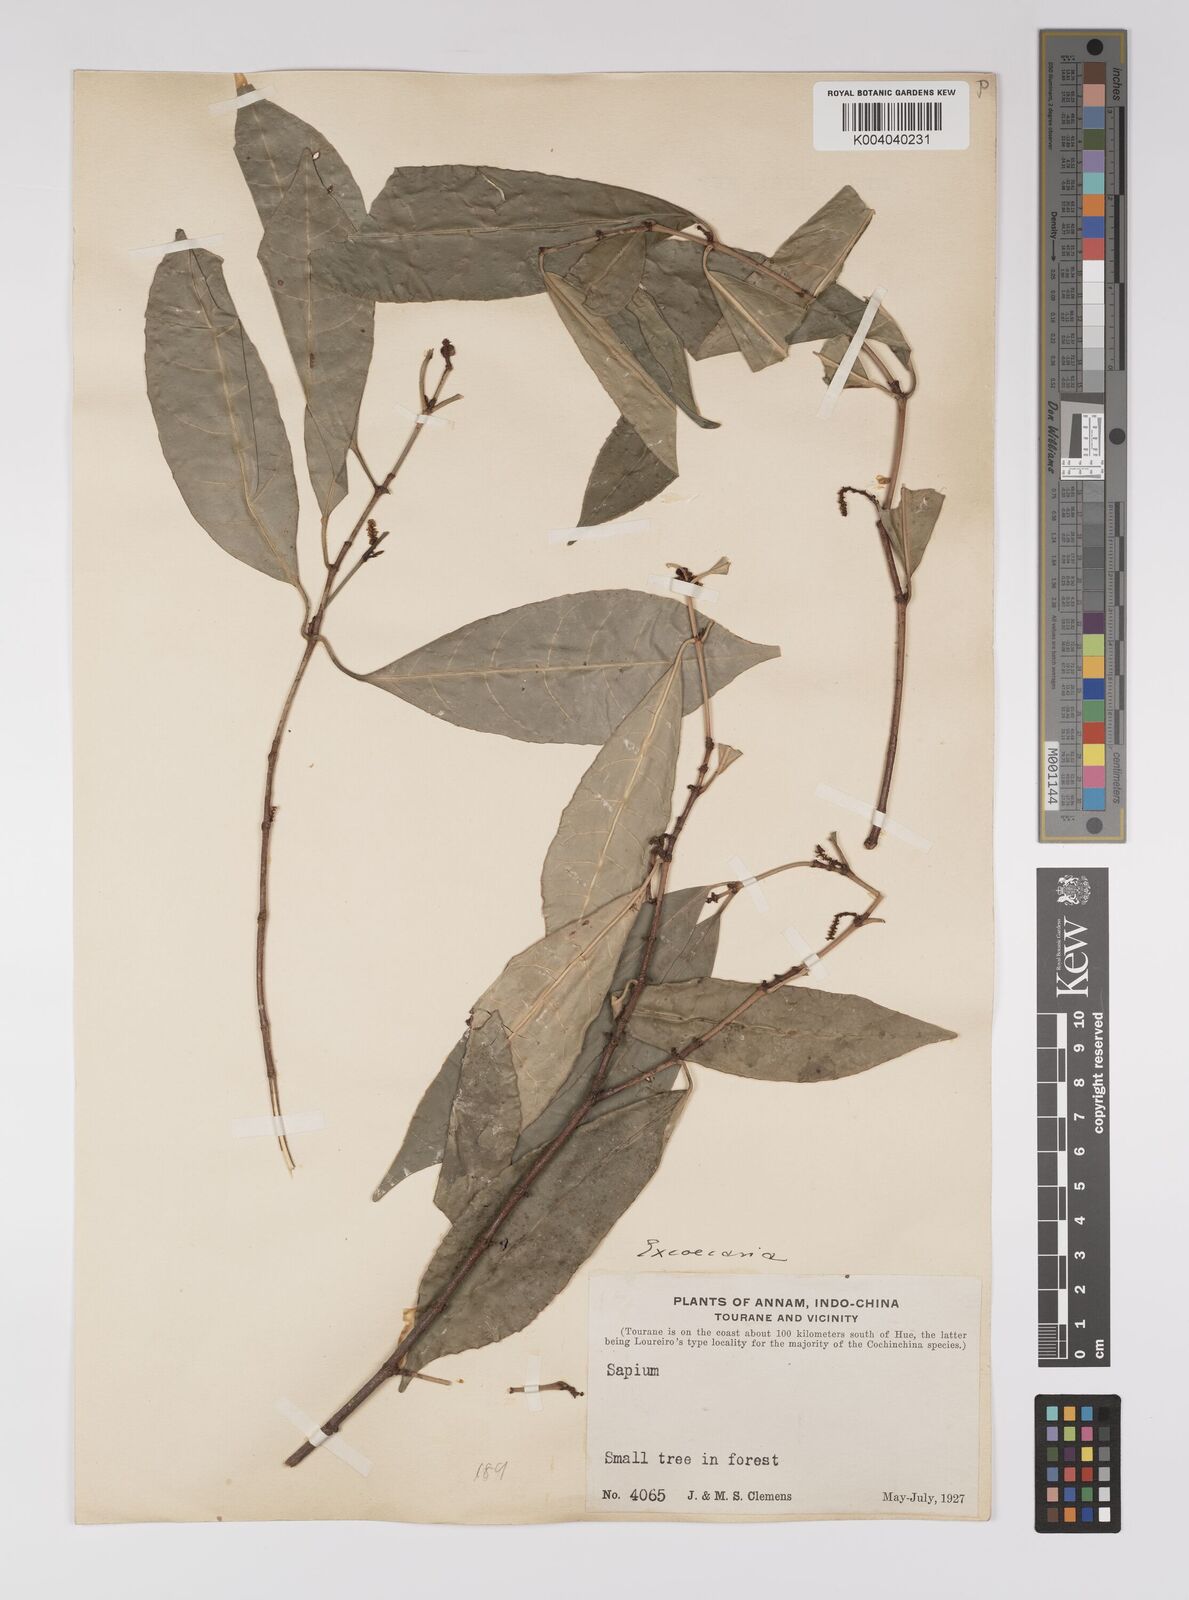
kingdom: Plantae
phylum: Tracheophyta
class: Magnoliopsida
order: Malpighiales
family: Euphorbiaceae
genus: Excoecaria
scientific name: Excoecaria cochinchinensis
